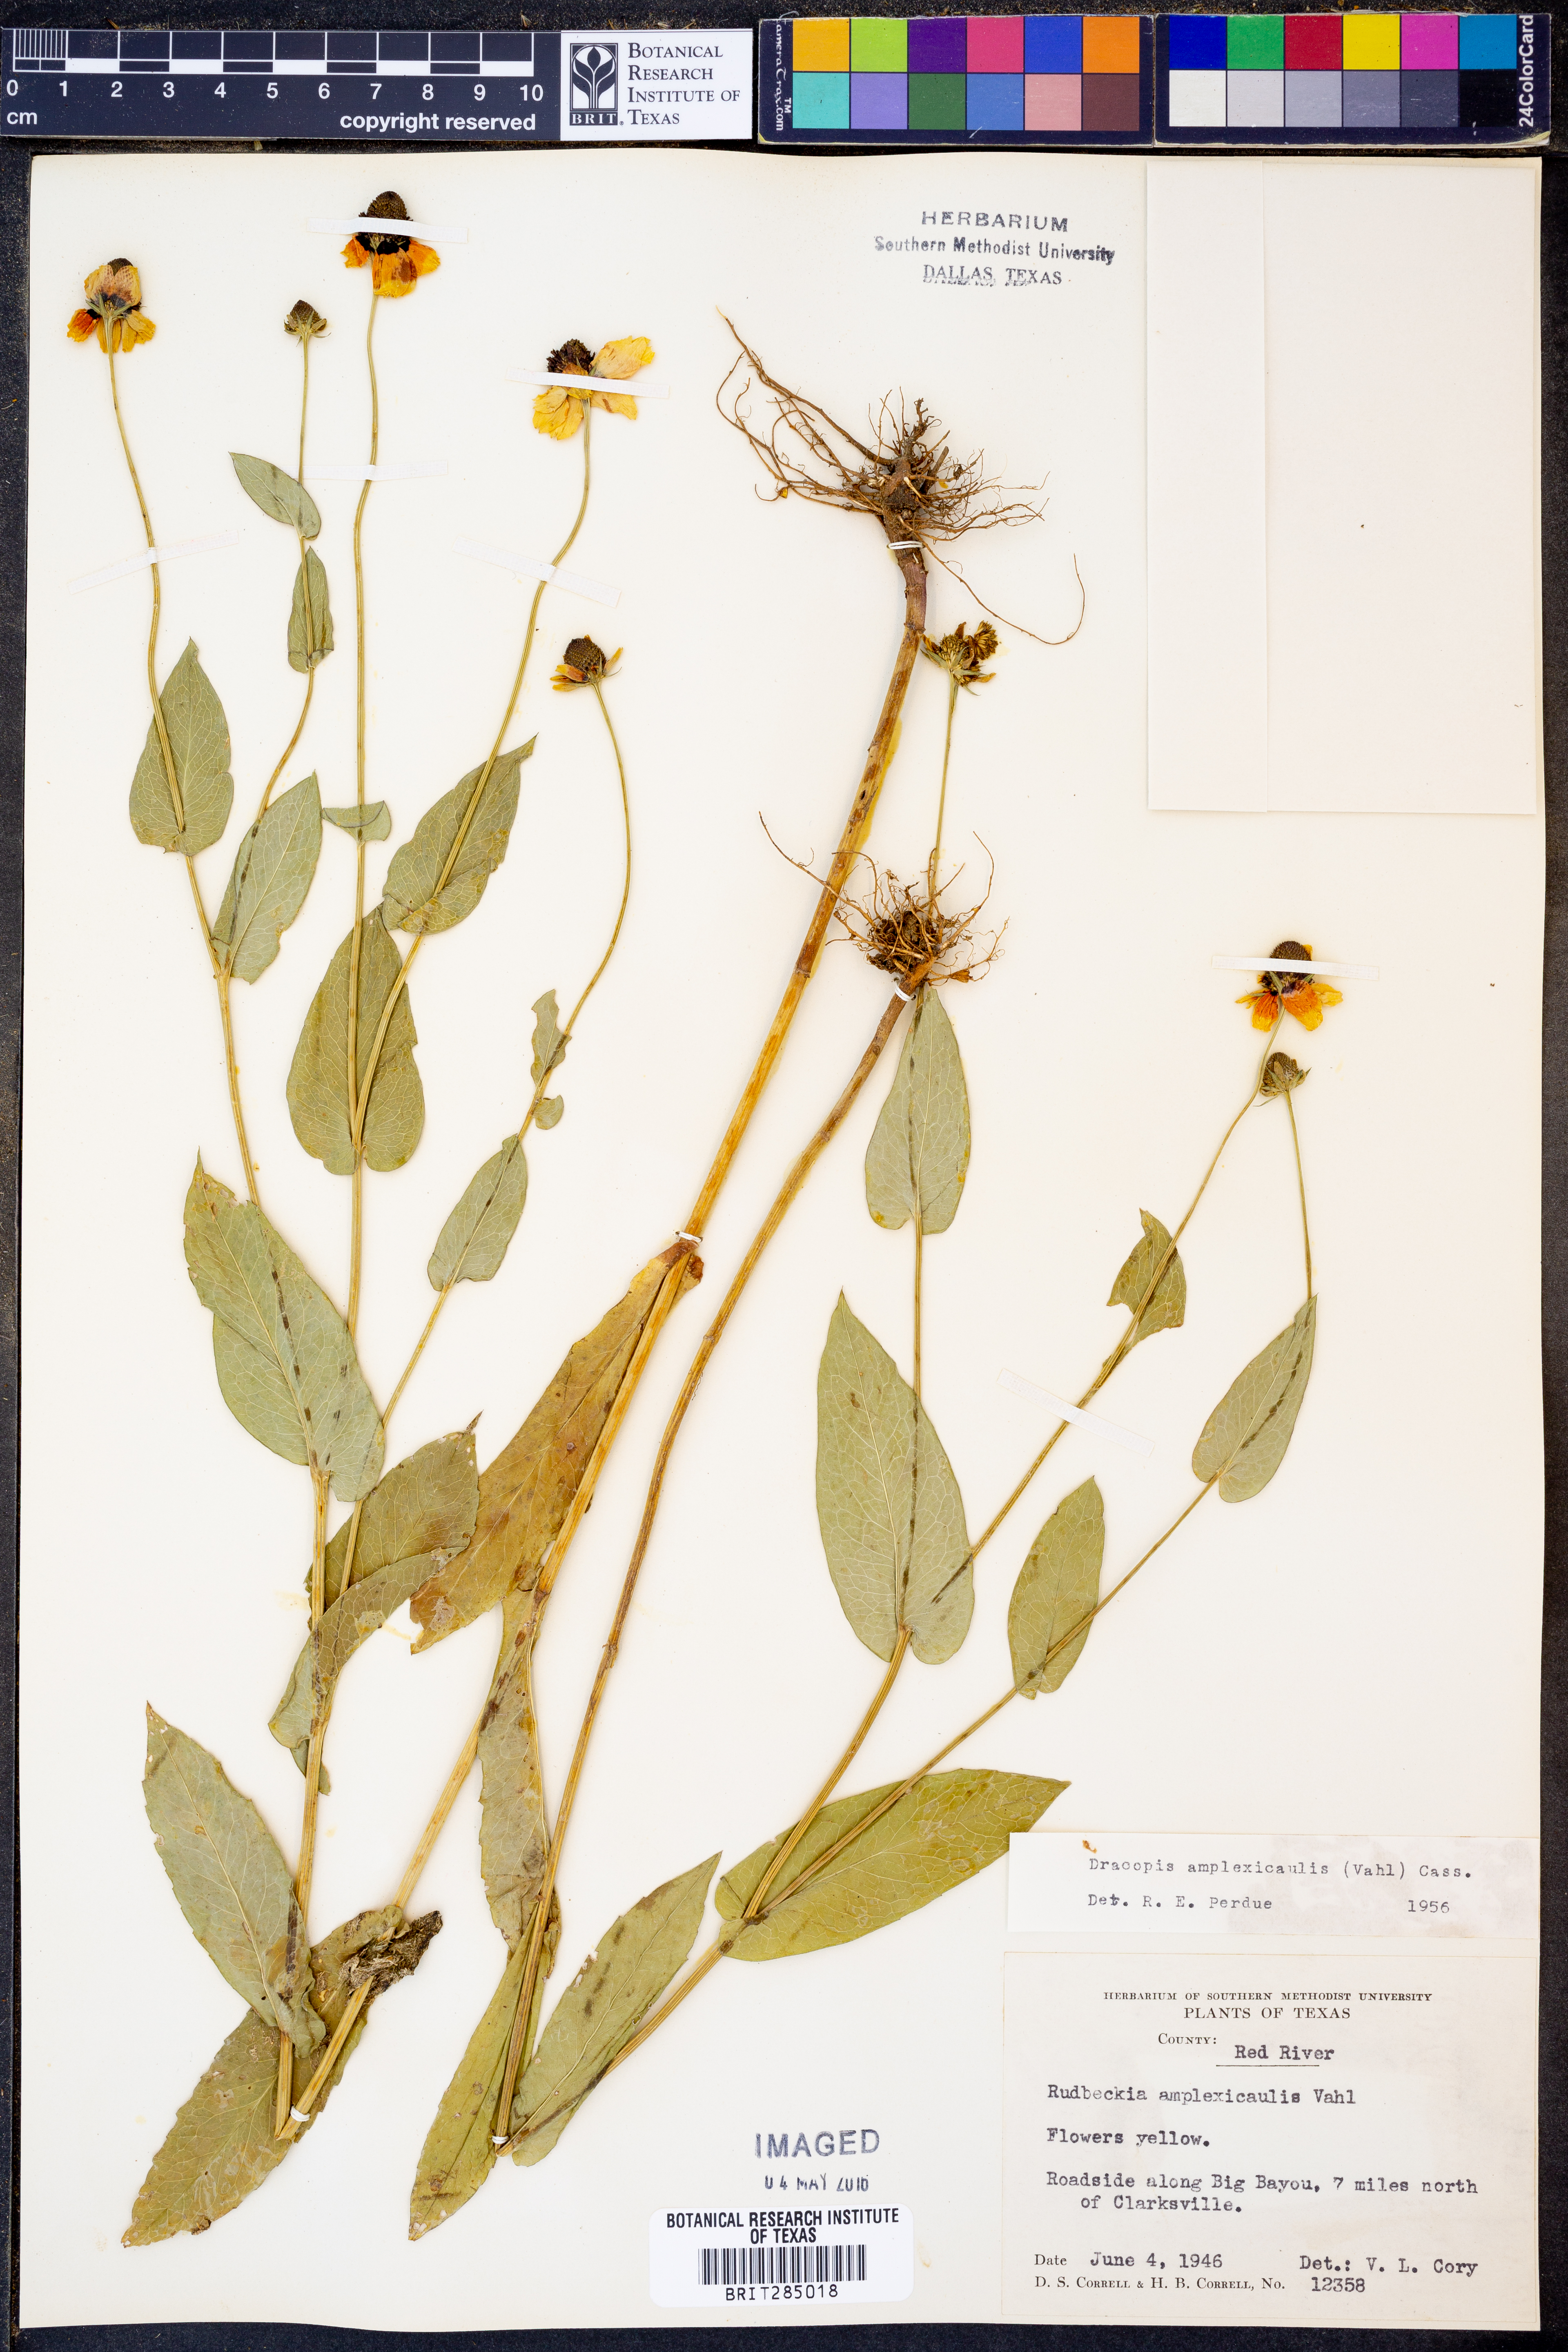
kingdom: Plantae
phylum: Tracheophyta
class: Magnoliopsida
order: Asterales
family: Asteraceae
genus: Rudbeckia
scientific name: Rudbeckia amplexicaulis
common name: Clasping-leaf coneflower
